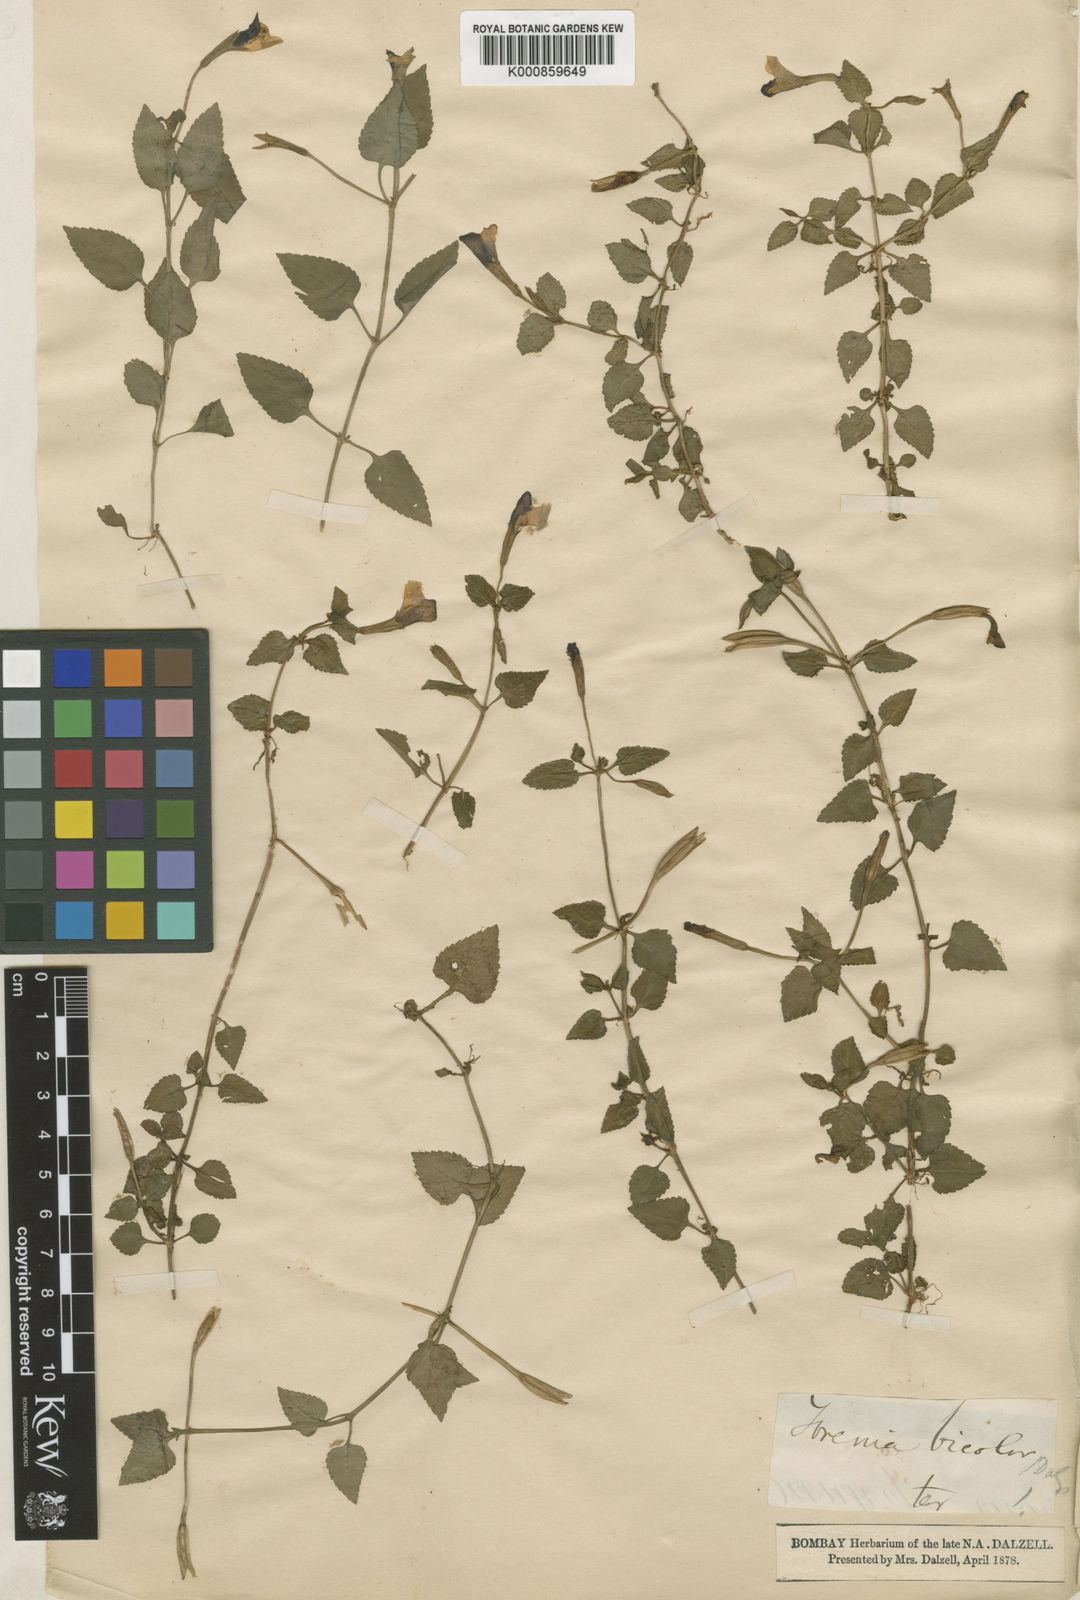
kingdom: Plantae
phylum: Tracheophyta
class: Magnoliopsida
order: Lamiales
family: Linderniaceae
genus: Torenia
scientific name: Torenia bicolor
